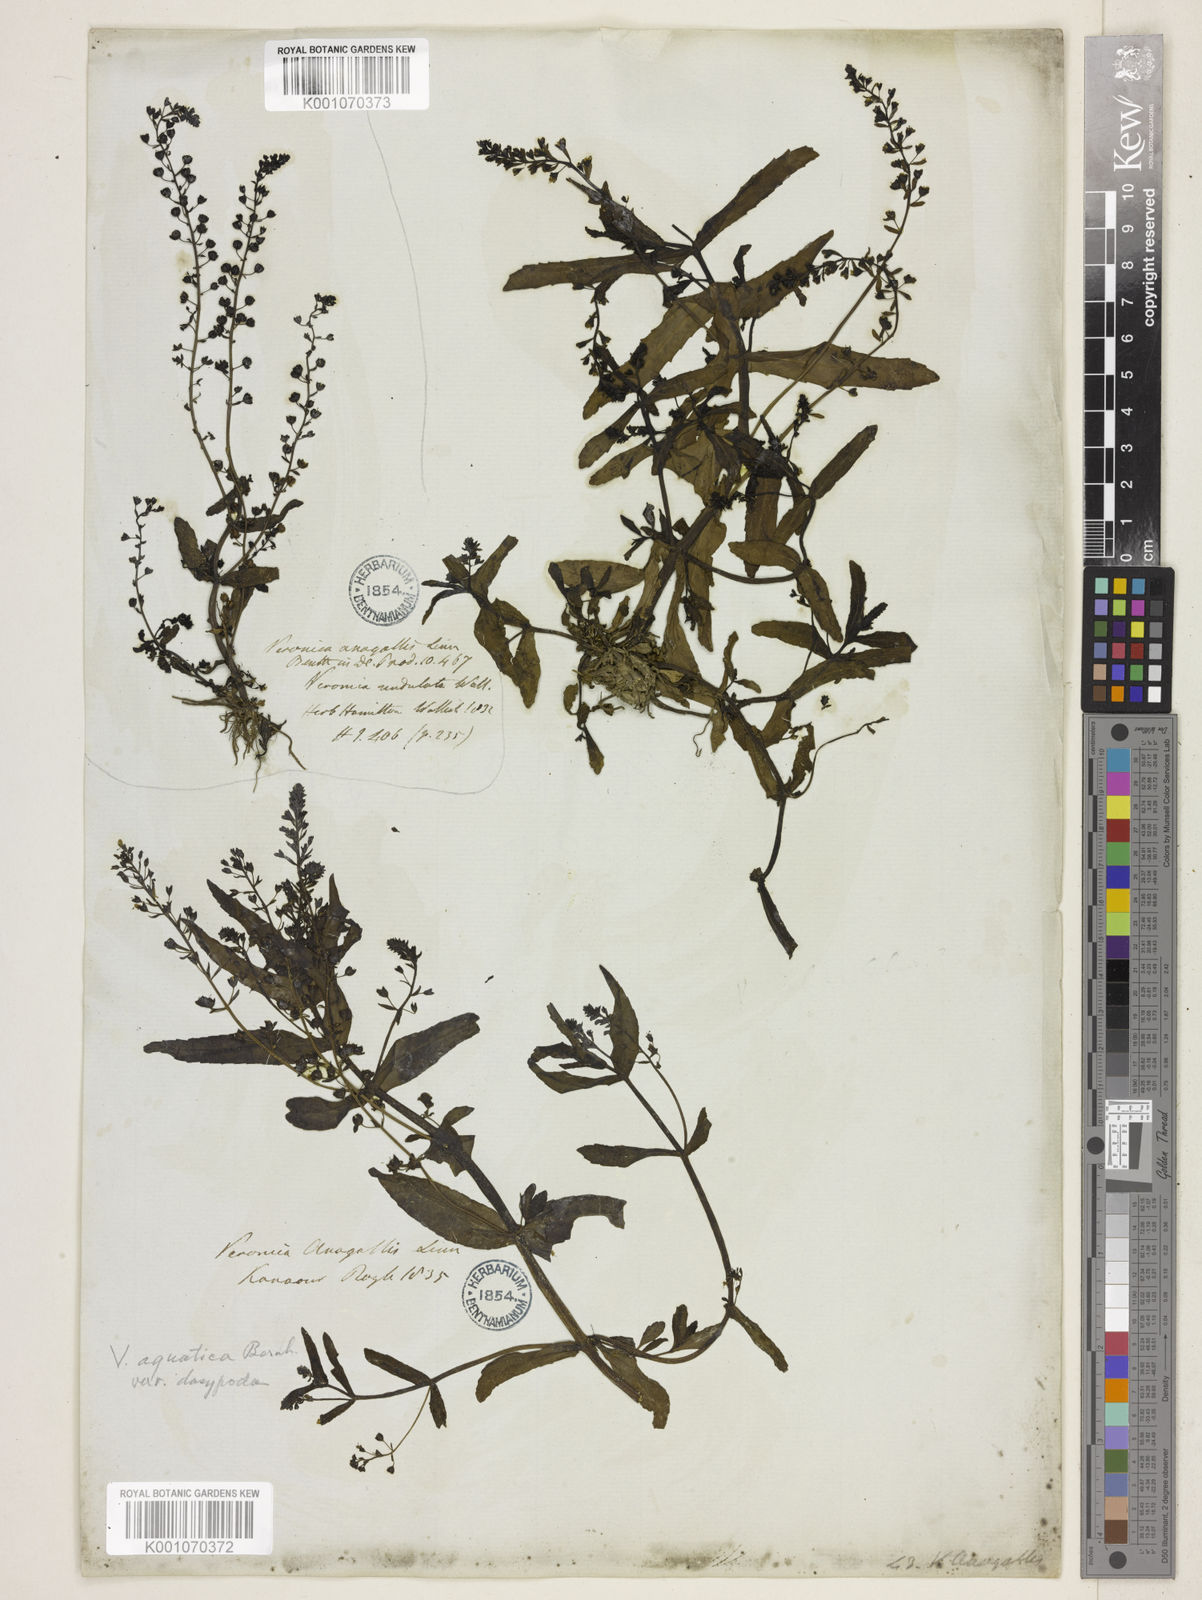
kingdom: Plantae
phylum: Tracheophyta
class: Magnoliopsida
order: Lamiales
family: Plantaginaceae
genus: Veronica
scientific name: Veronica undulata
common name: Undulate speedwell
